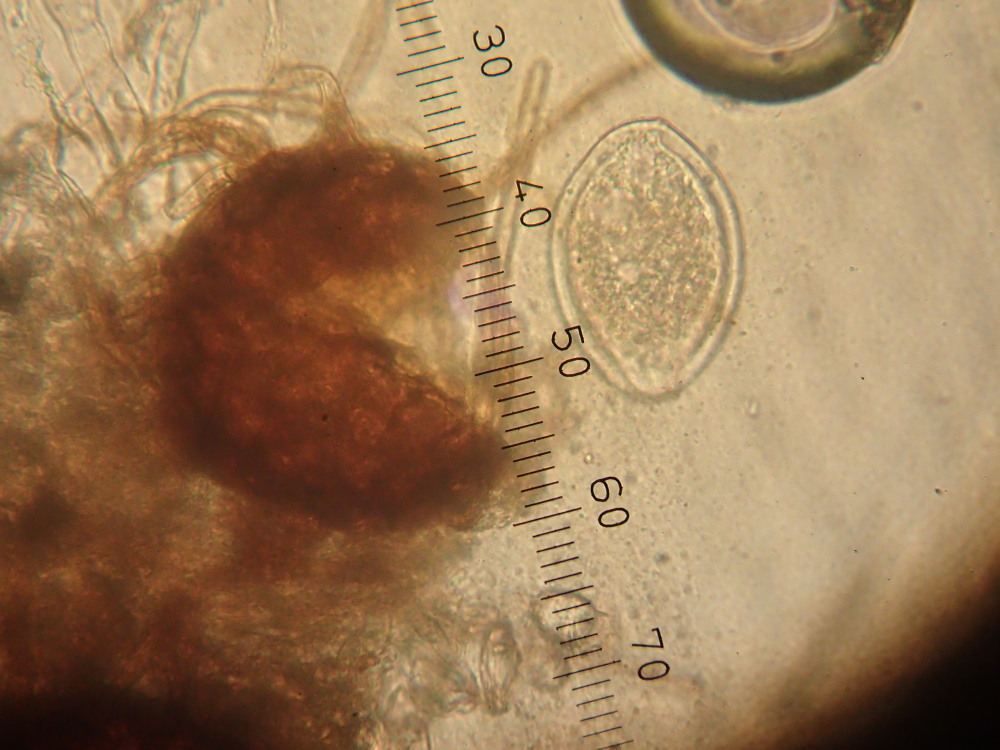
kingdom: Fungi
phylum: Ascomycota
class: Leotiomycetes
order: Helotiales
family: Erysiphaceae
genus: Podosphaera
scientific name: Podosphaera epilobii
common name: dueurt-meldug
